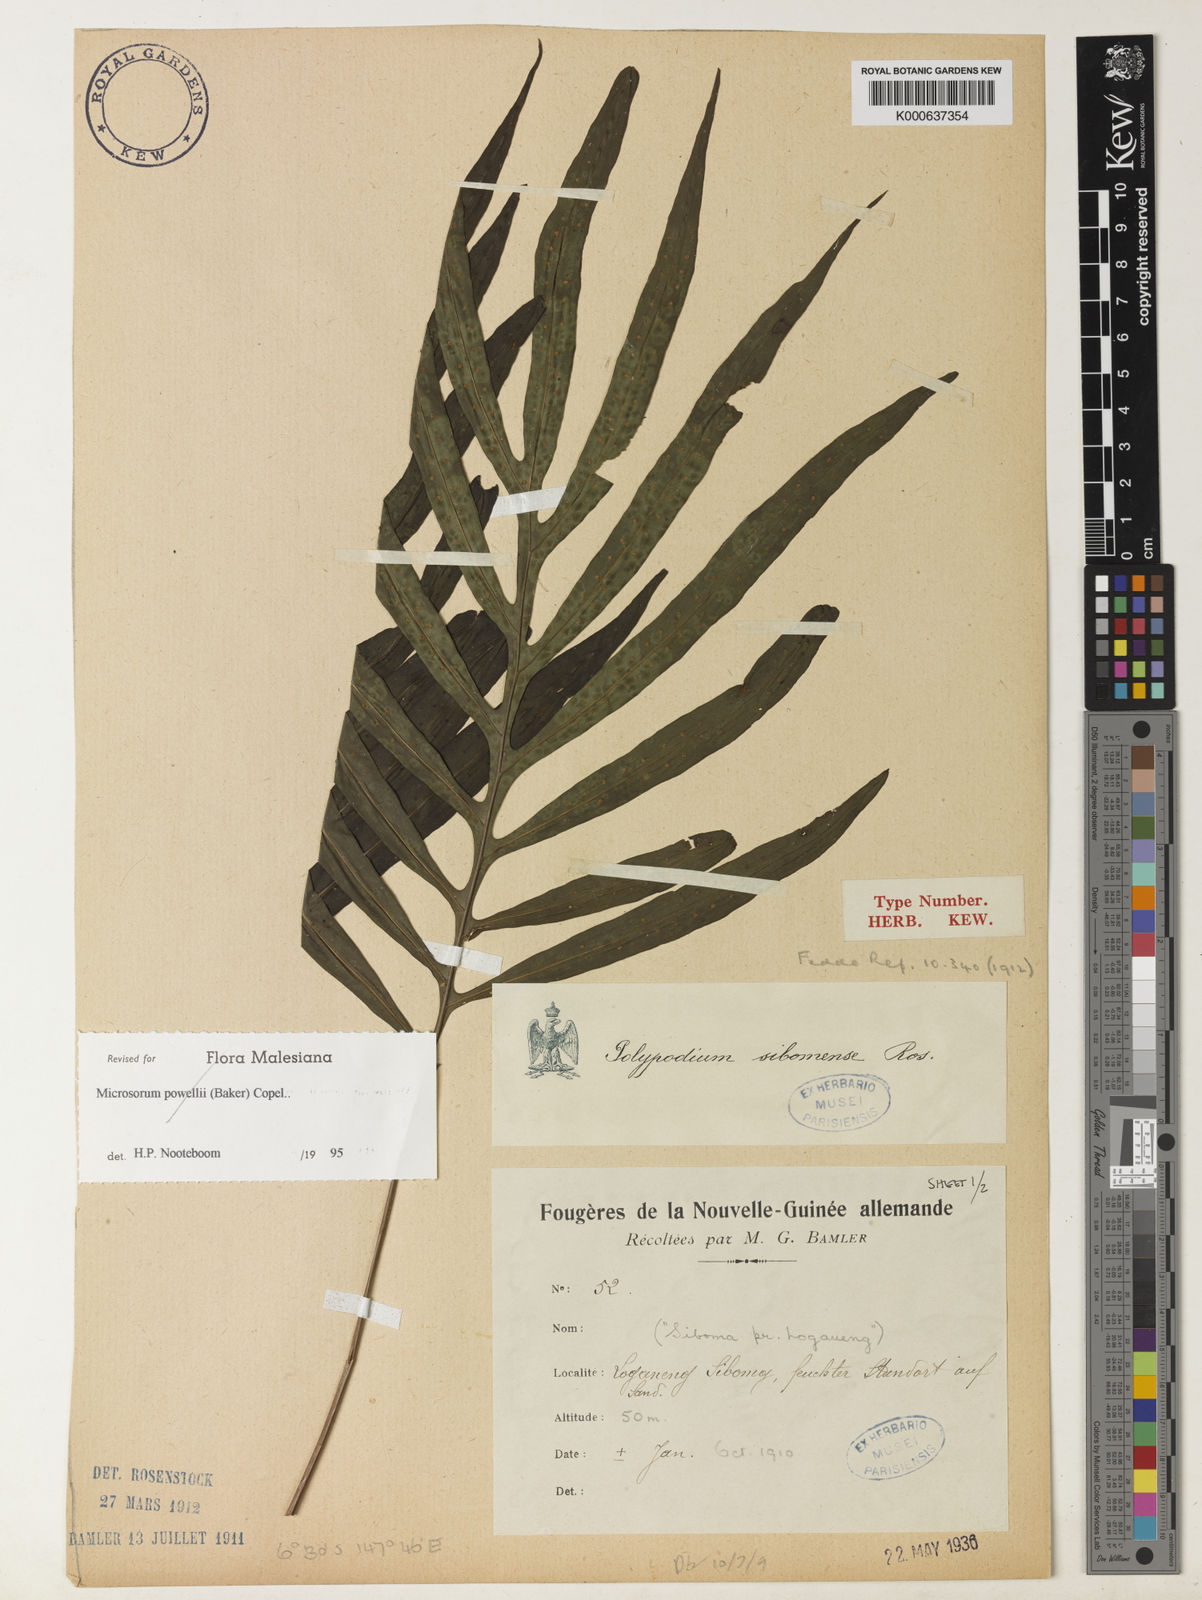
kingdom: Plantae
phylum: Tracheophyta
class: Polypodiopsida
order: Polypodiales
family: Polypodiaceae
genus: Microsorum
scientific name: Microsorum sibomense
